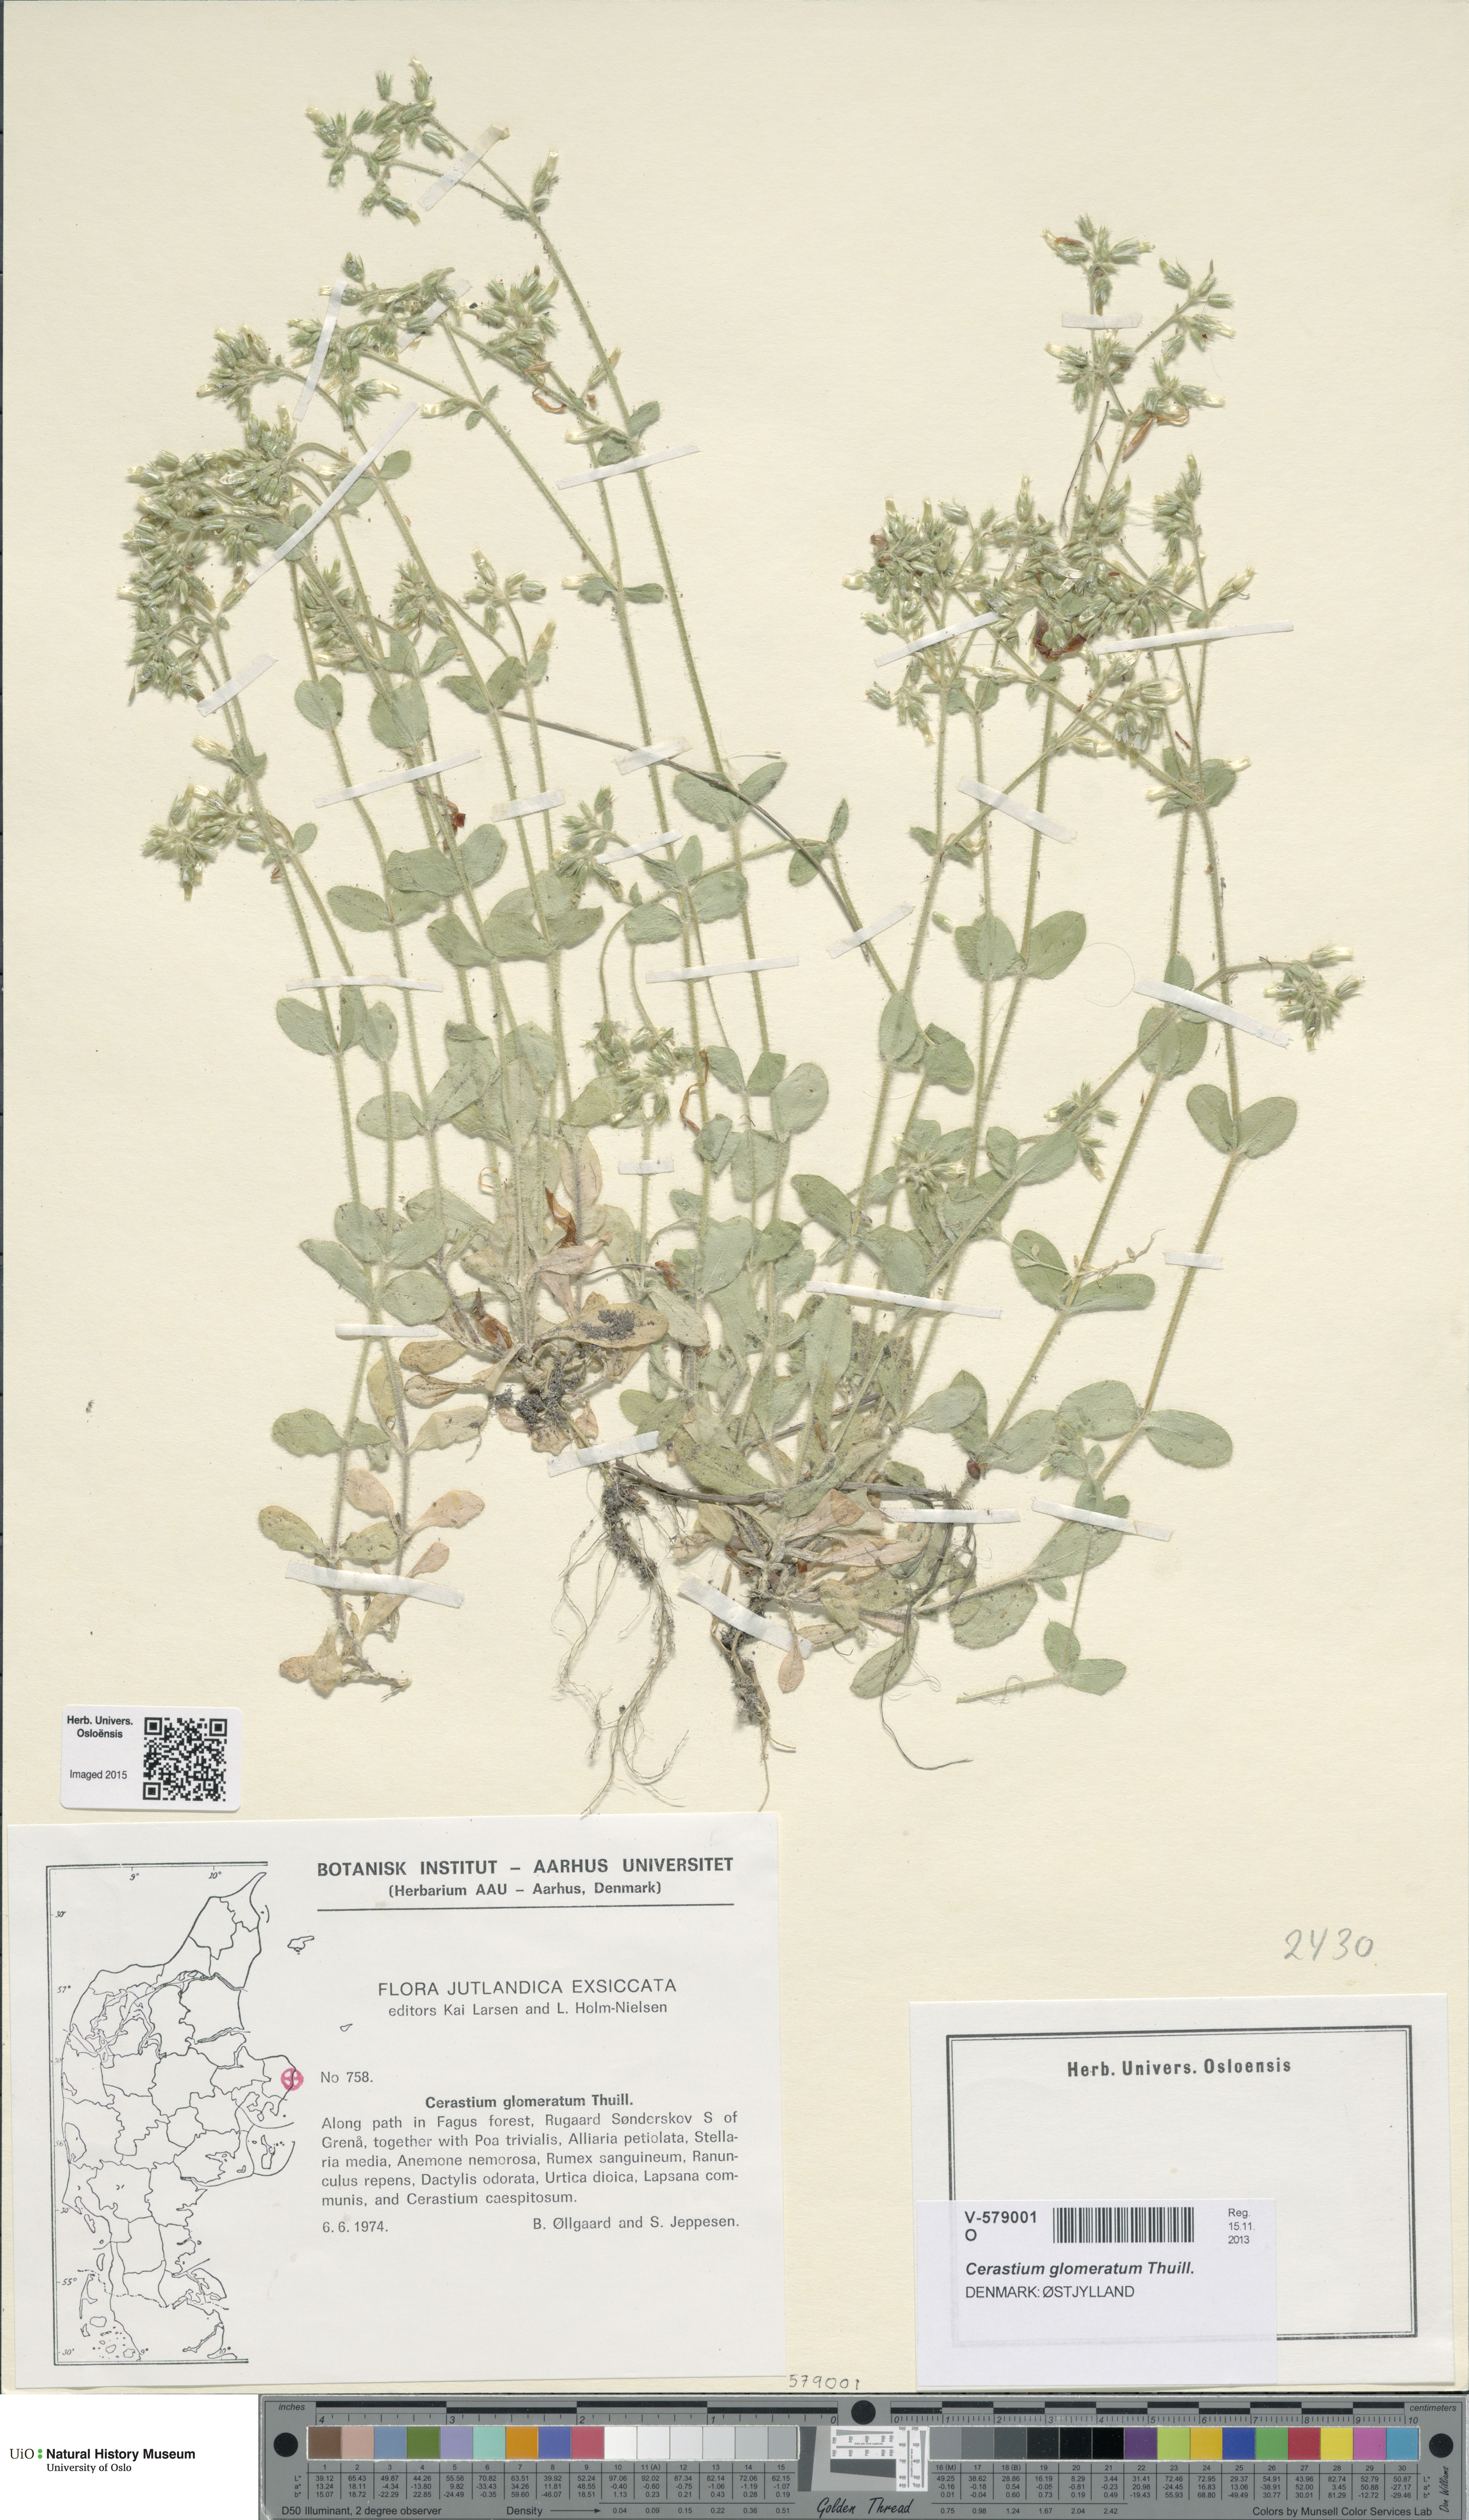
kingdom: Plantae
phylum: Tracheophyta
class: Magnoliopsida
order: Caryophyllales
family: Caryophyllaceae
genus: Cerastium
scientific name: Cerastium glomeratum
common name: Sticky chickweed
